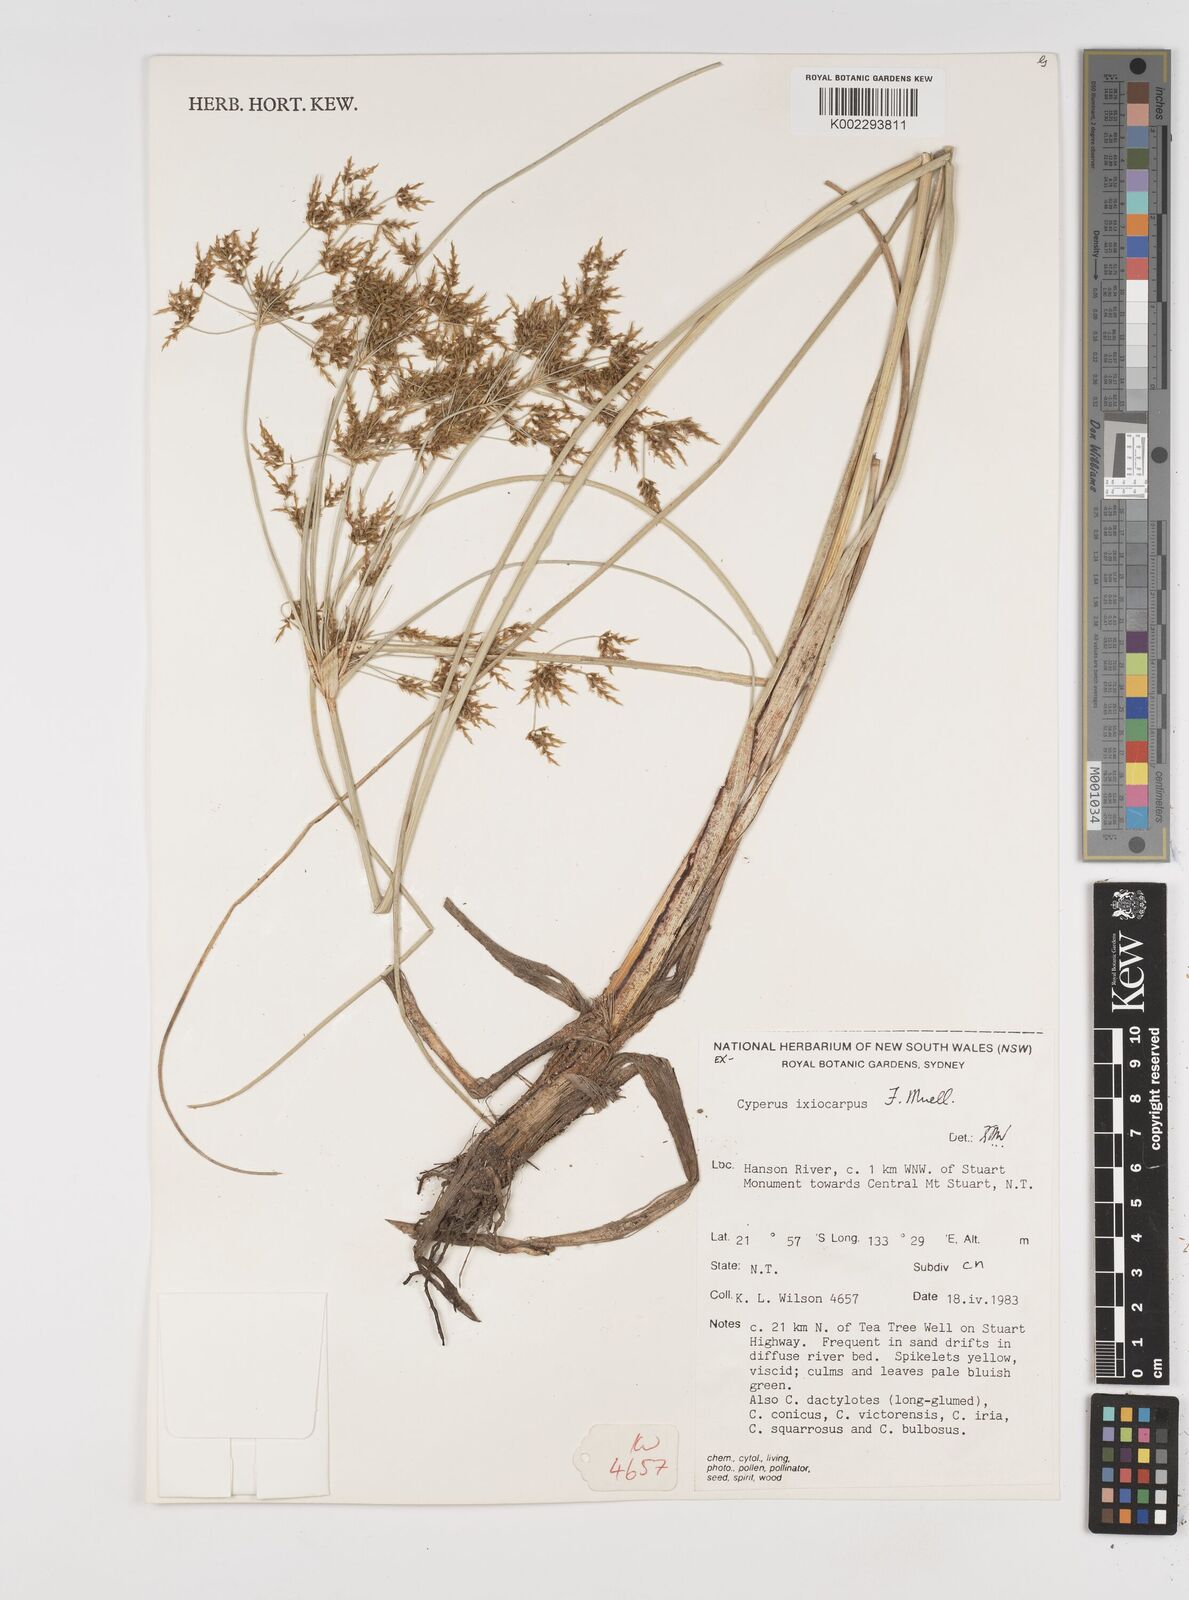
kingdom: Plantae
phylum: Tracheophyta
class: Liliopsida
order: Poales
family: Cyperaceae
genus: Cyperus
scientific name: Cyperus ixiocarpus
